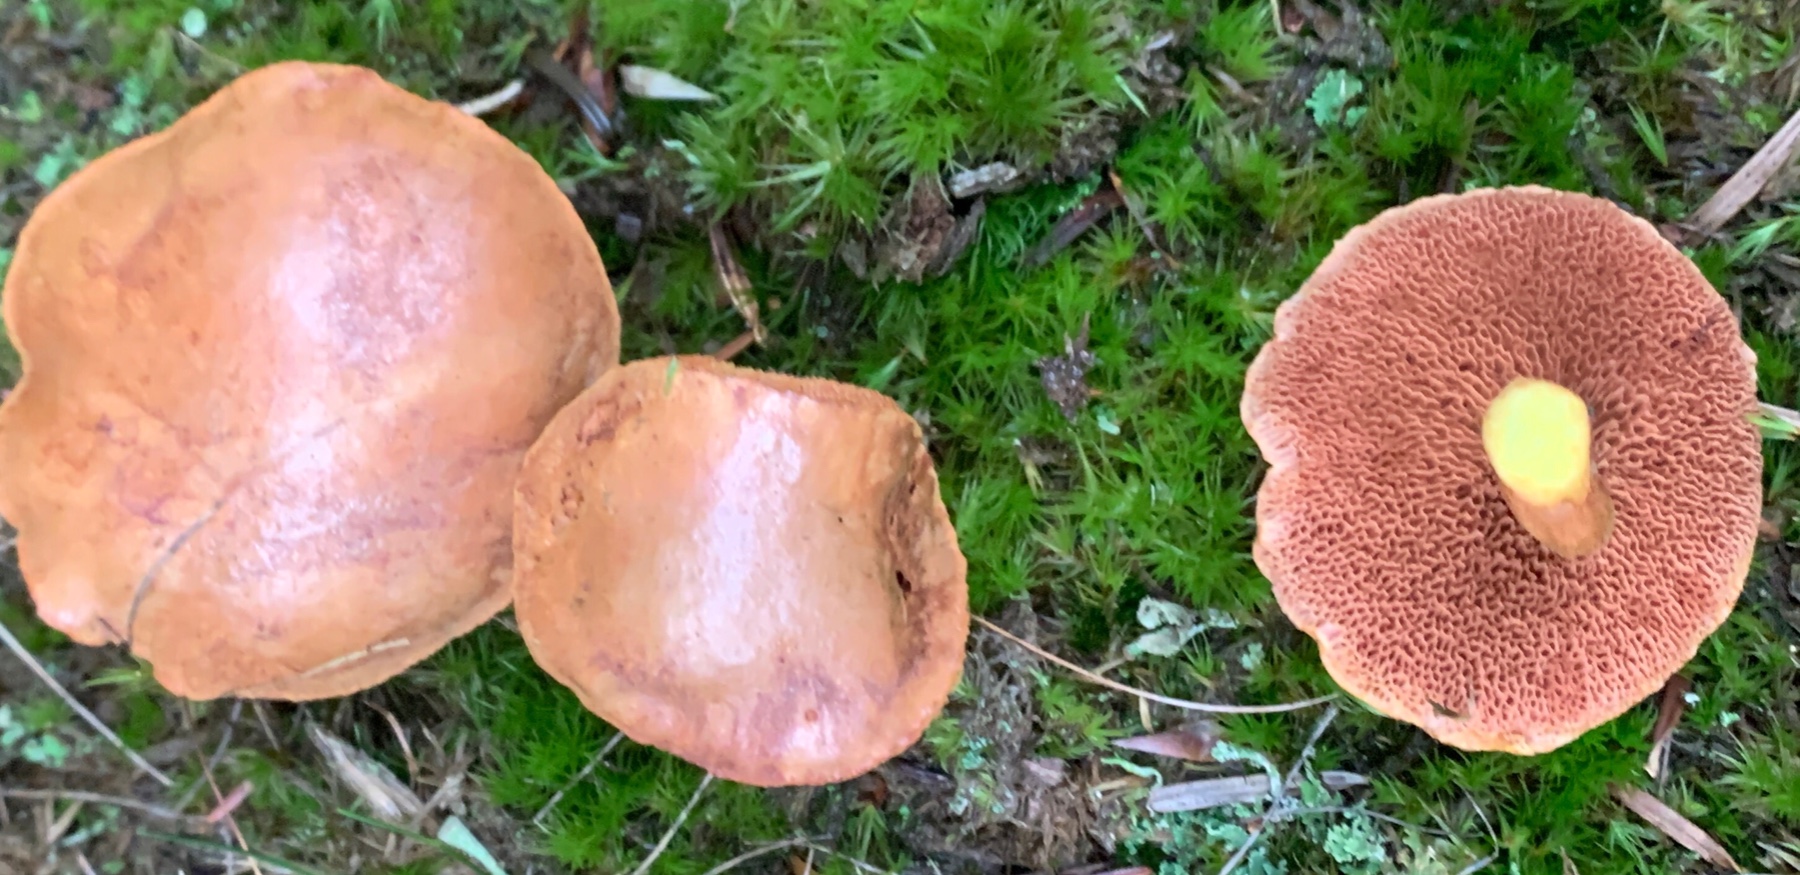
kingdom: Fungi
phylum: Basidiomycota
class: Agaricomycetes
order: Boletales
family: Boletaceae
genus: Chalciporus
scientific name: Chalciporus piperatus
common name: peberrørhat
